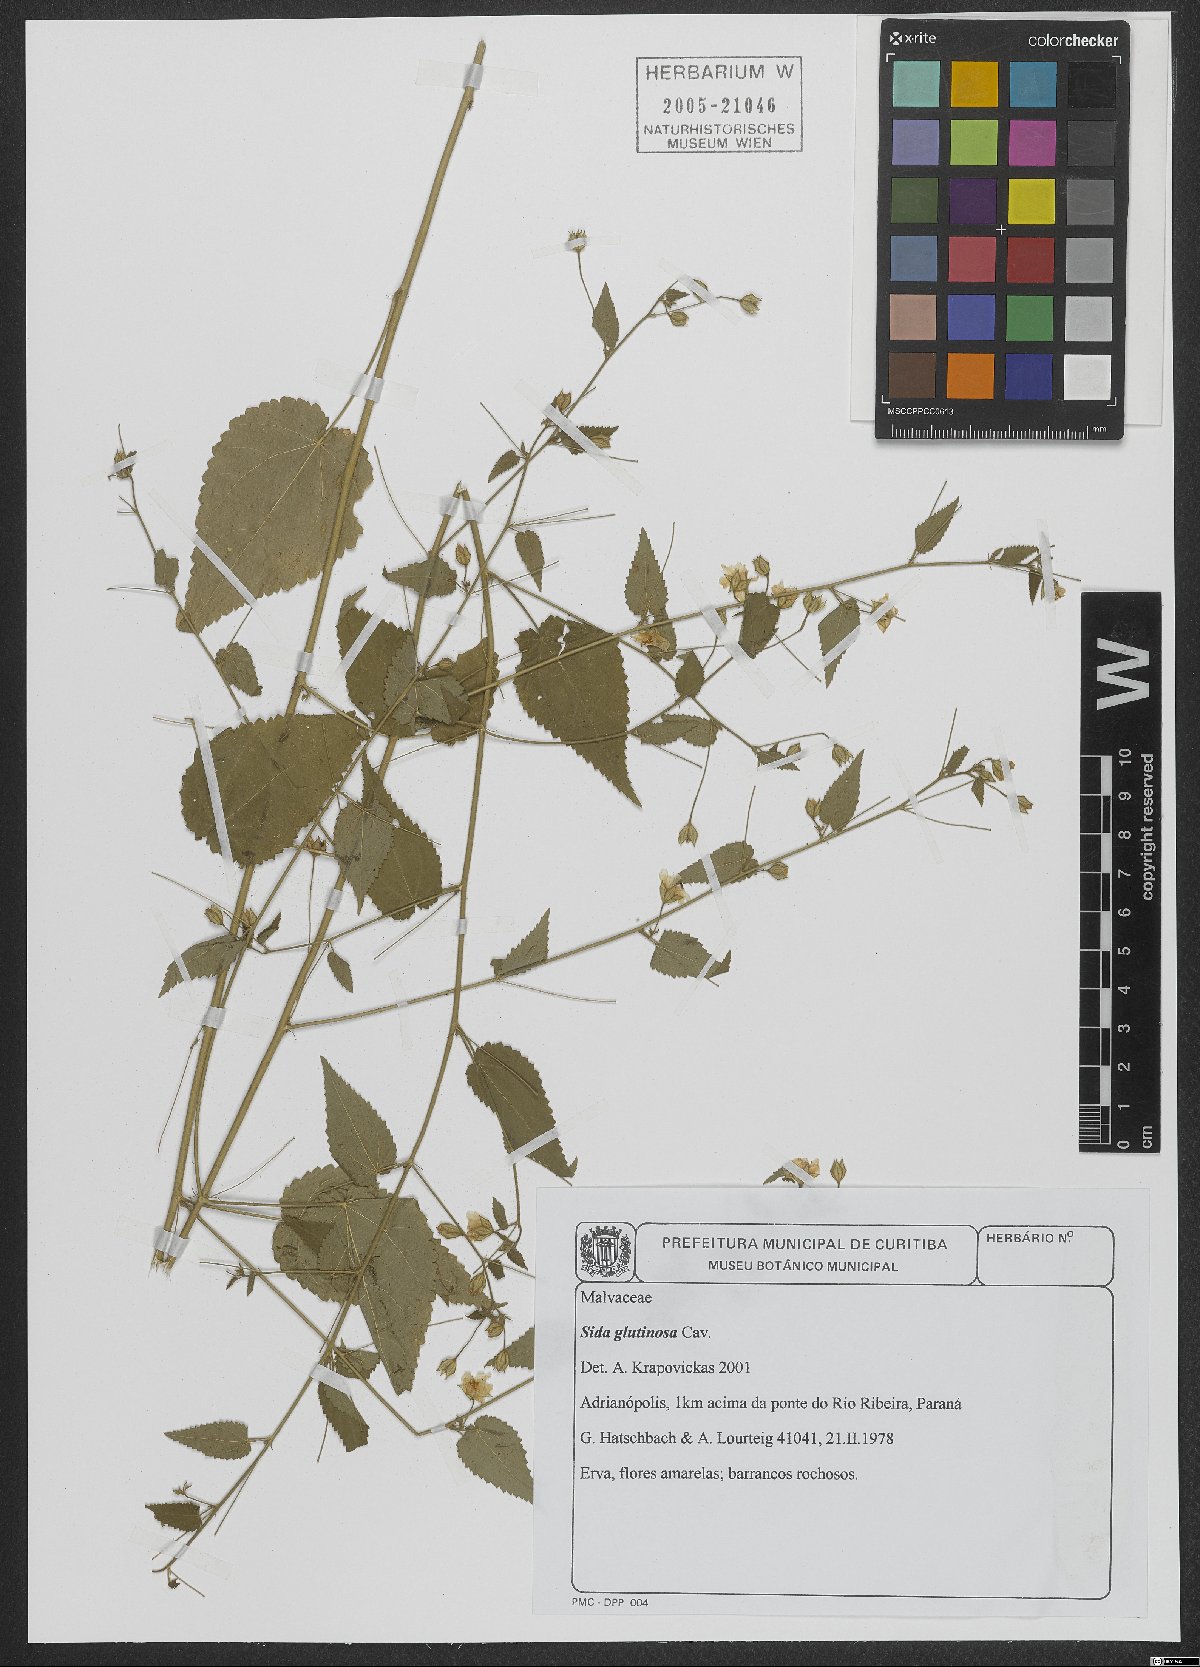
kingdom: Plantae
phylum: Tracheophyta
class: Magnoliopsida
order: Malvales
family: Malvaceae
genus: Sida
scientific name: Sida glabra
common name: Smooth fanpetals
